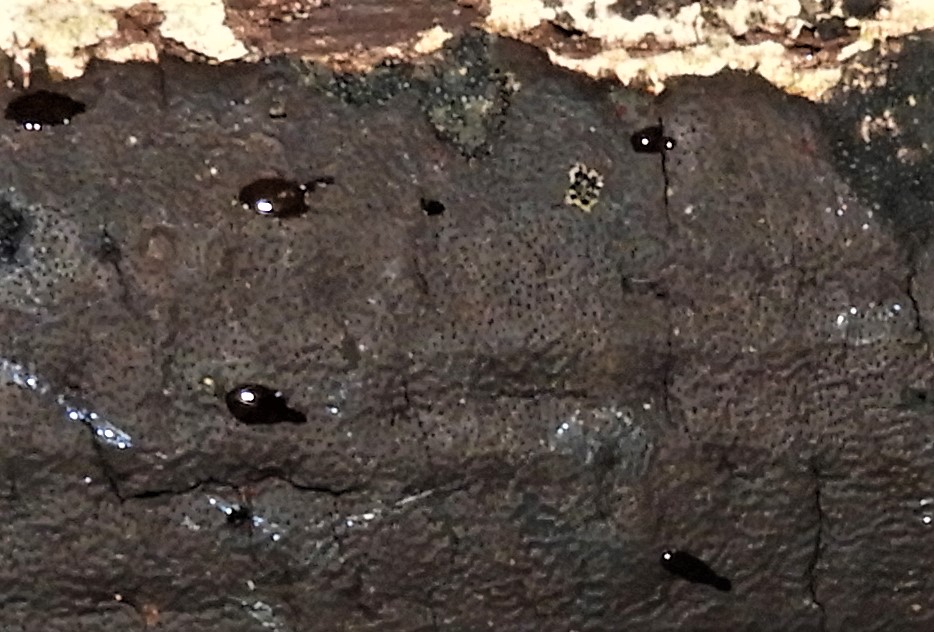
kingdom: Fungi
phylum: Ascomycota
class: Sordariomycetes
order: Xylariales
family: Diatrypaceae
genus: Diatrype
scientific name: Diatrype
